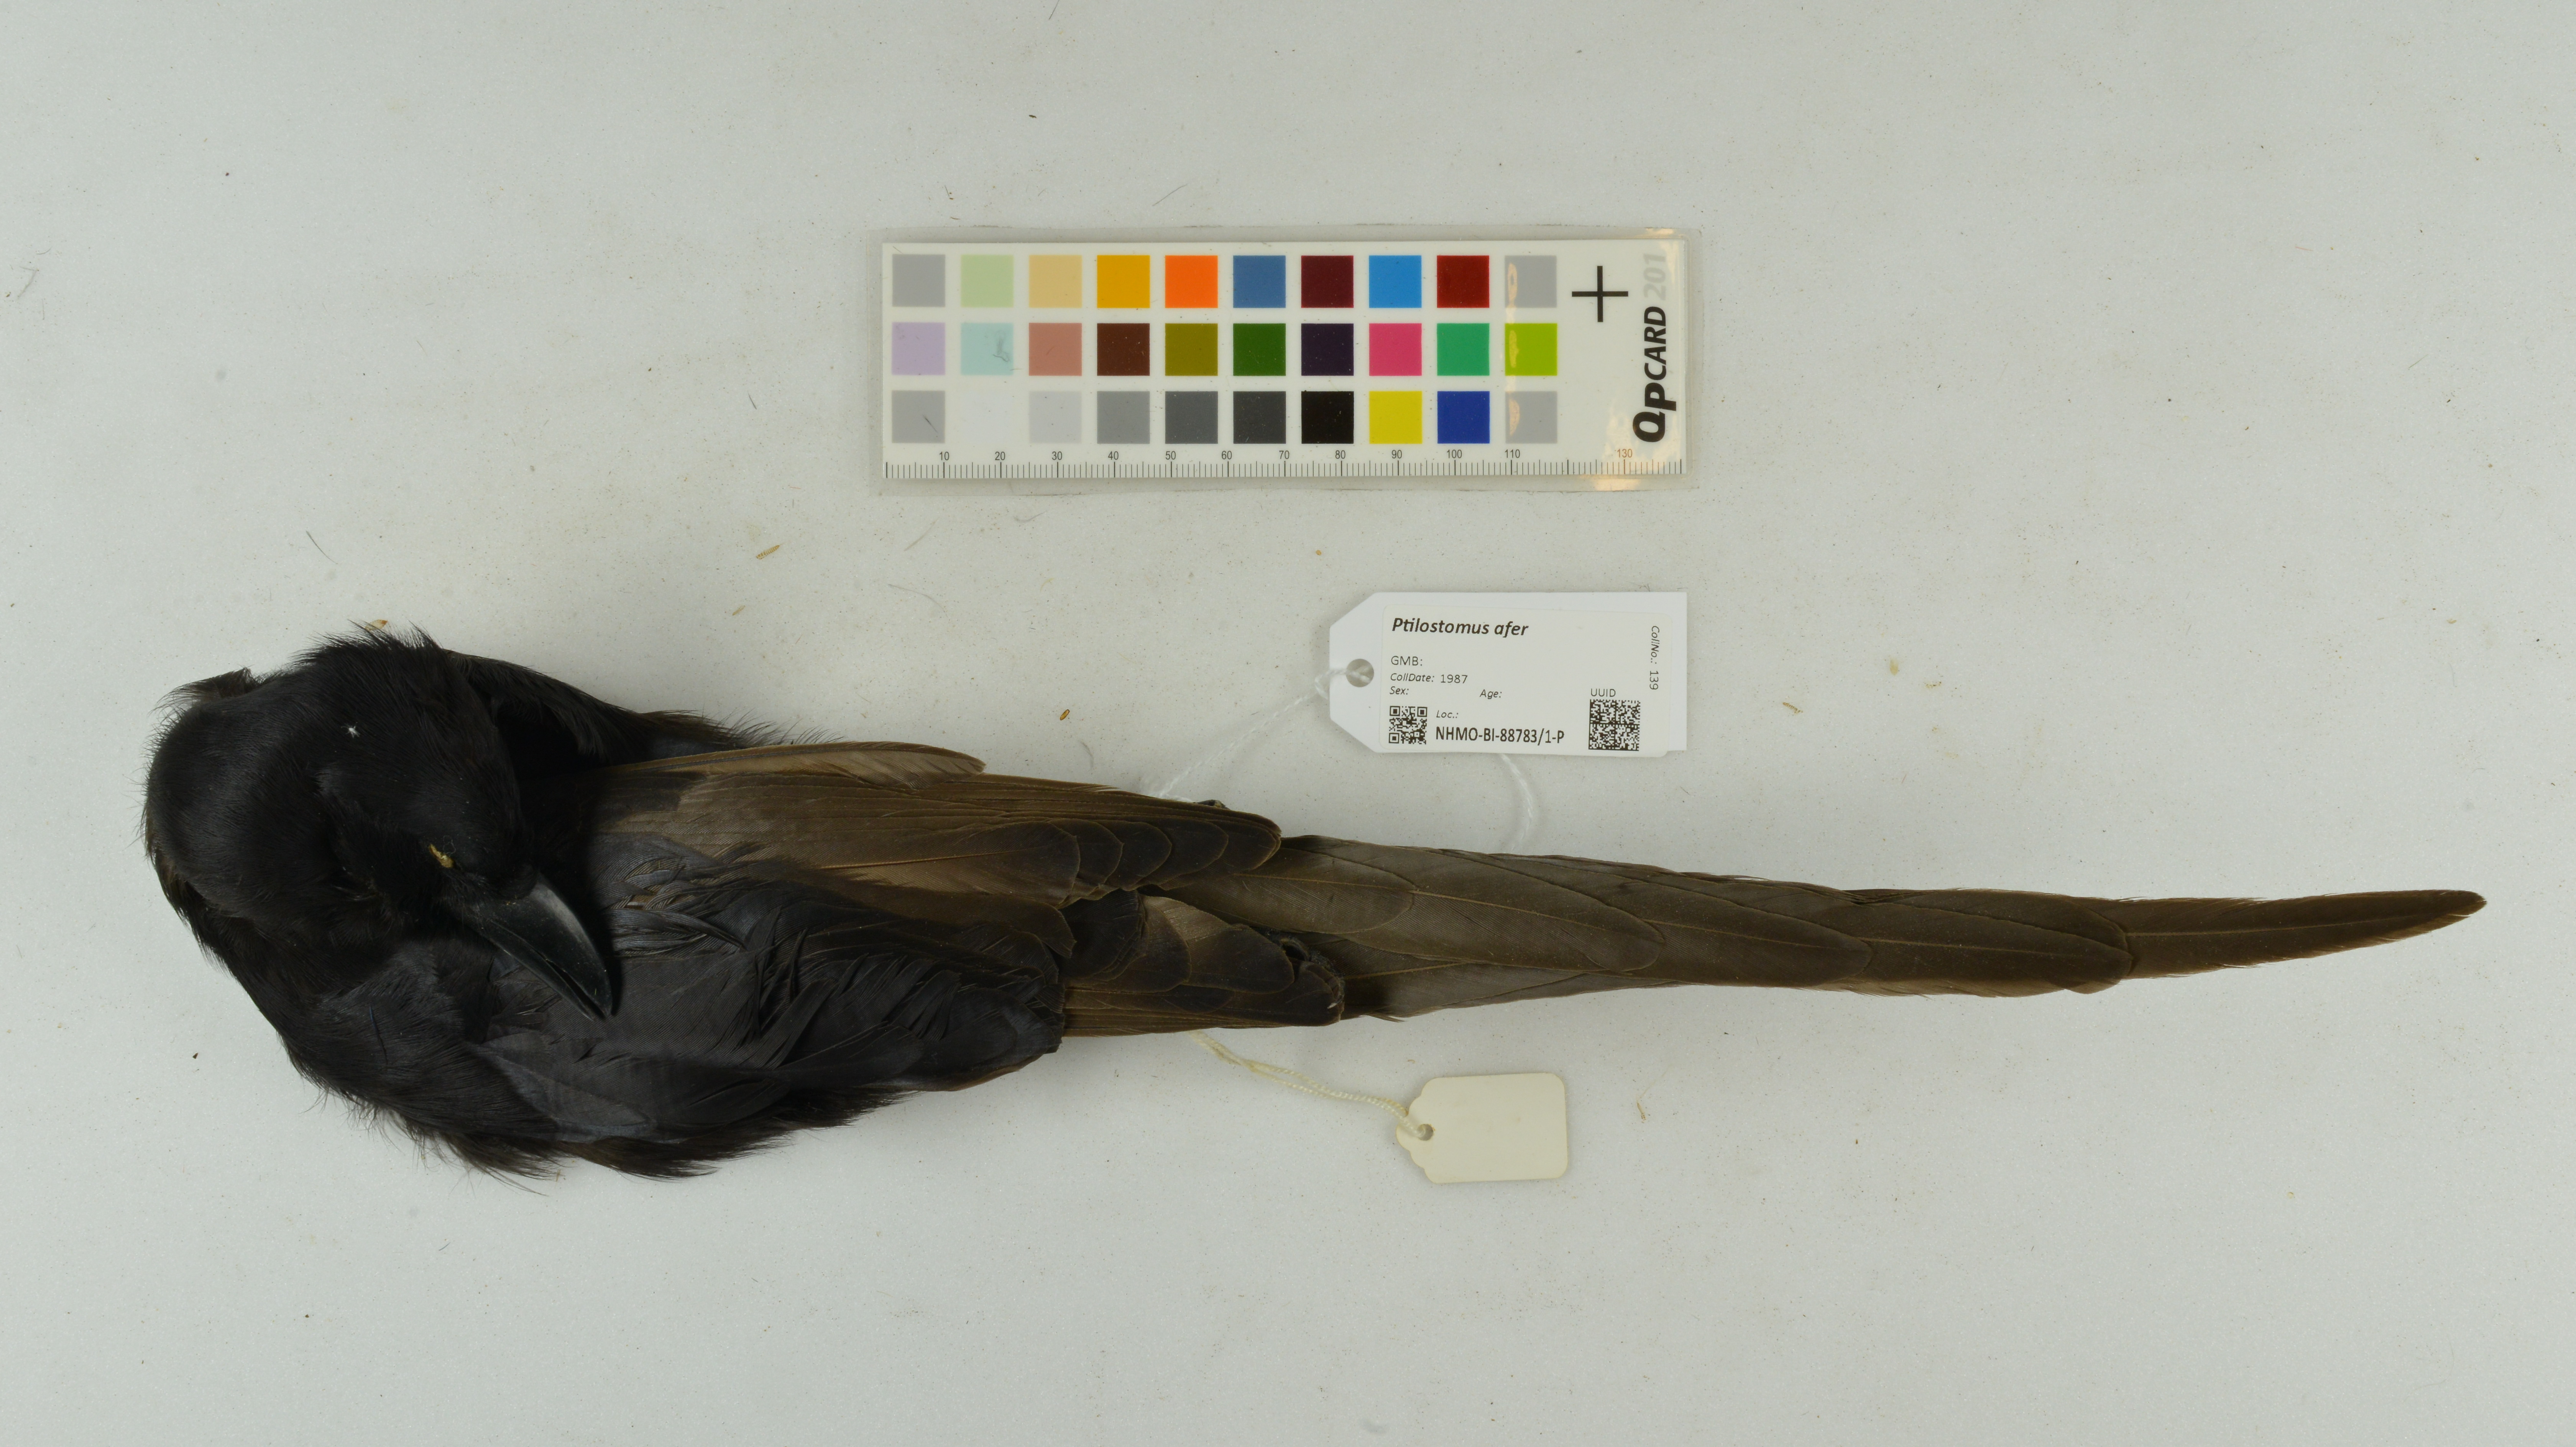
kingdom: Animalia
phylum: Chordata
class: Aves
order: Passeriformes
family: Corvidae
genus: Ptilostomus
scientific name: Ptilostomus afer
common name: Piapiac
